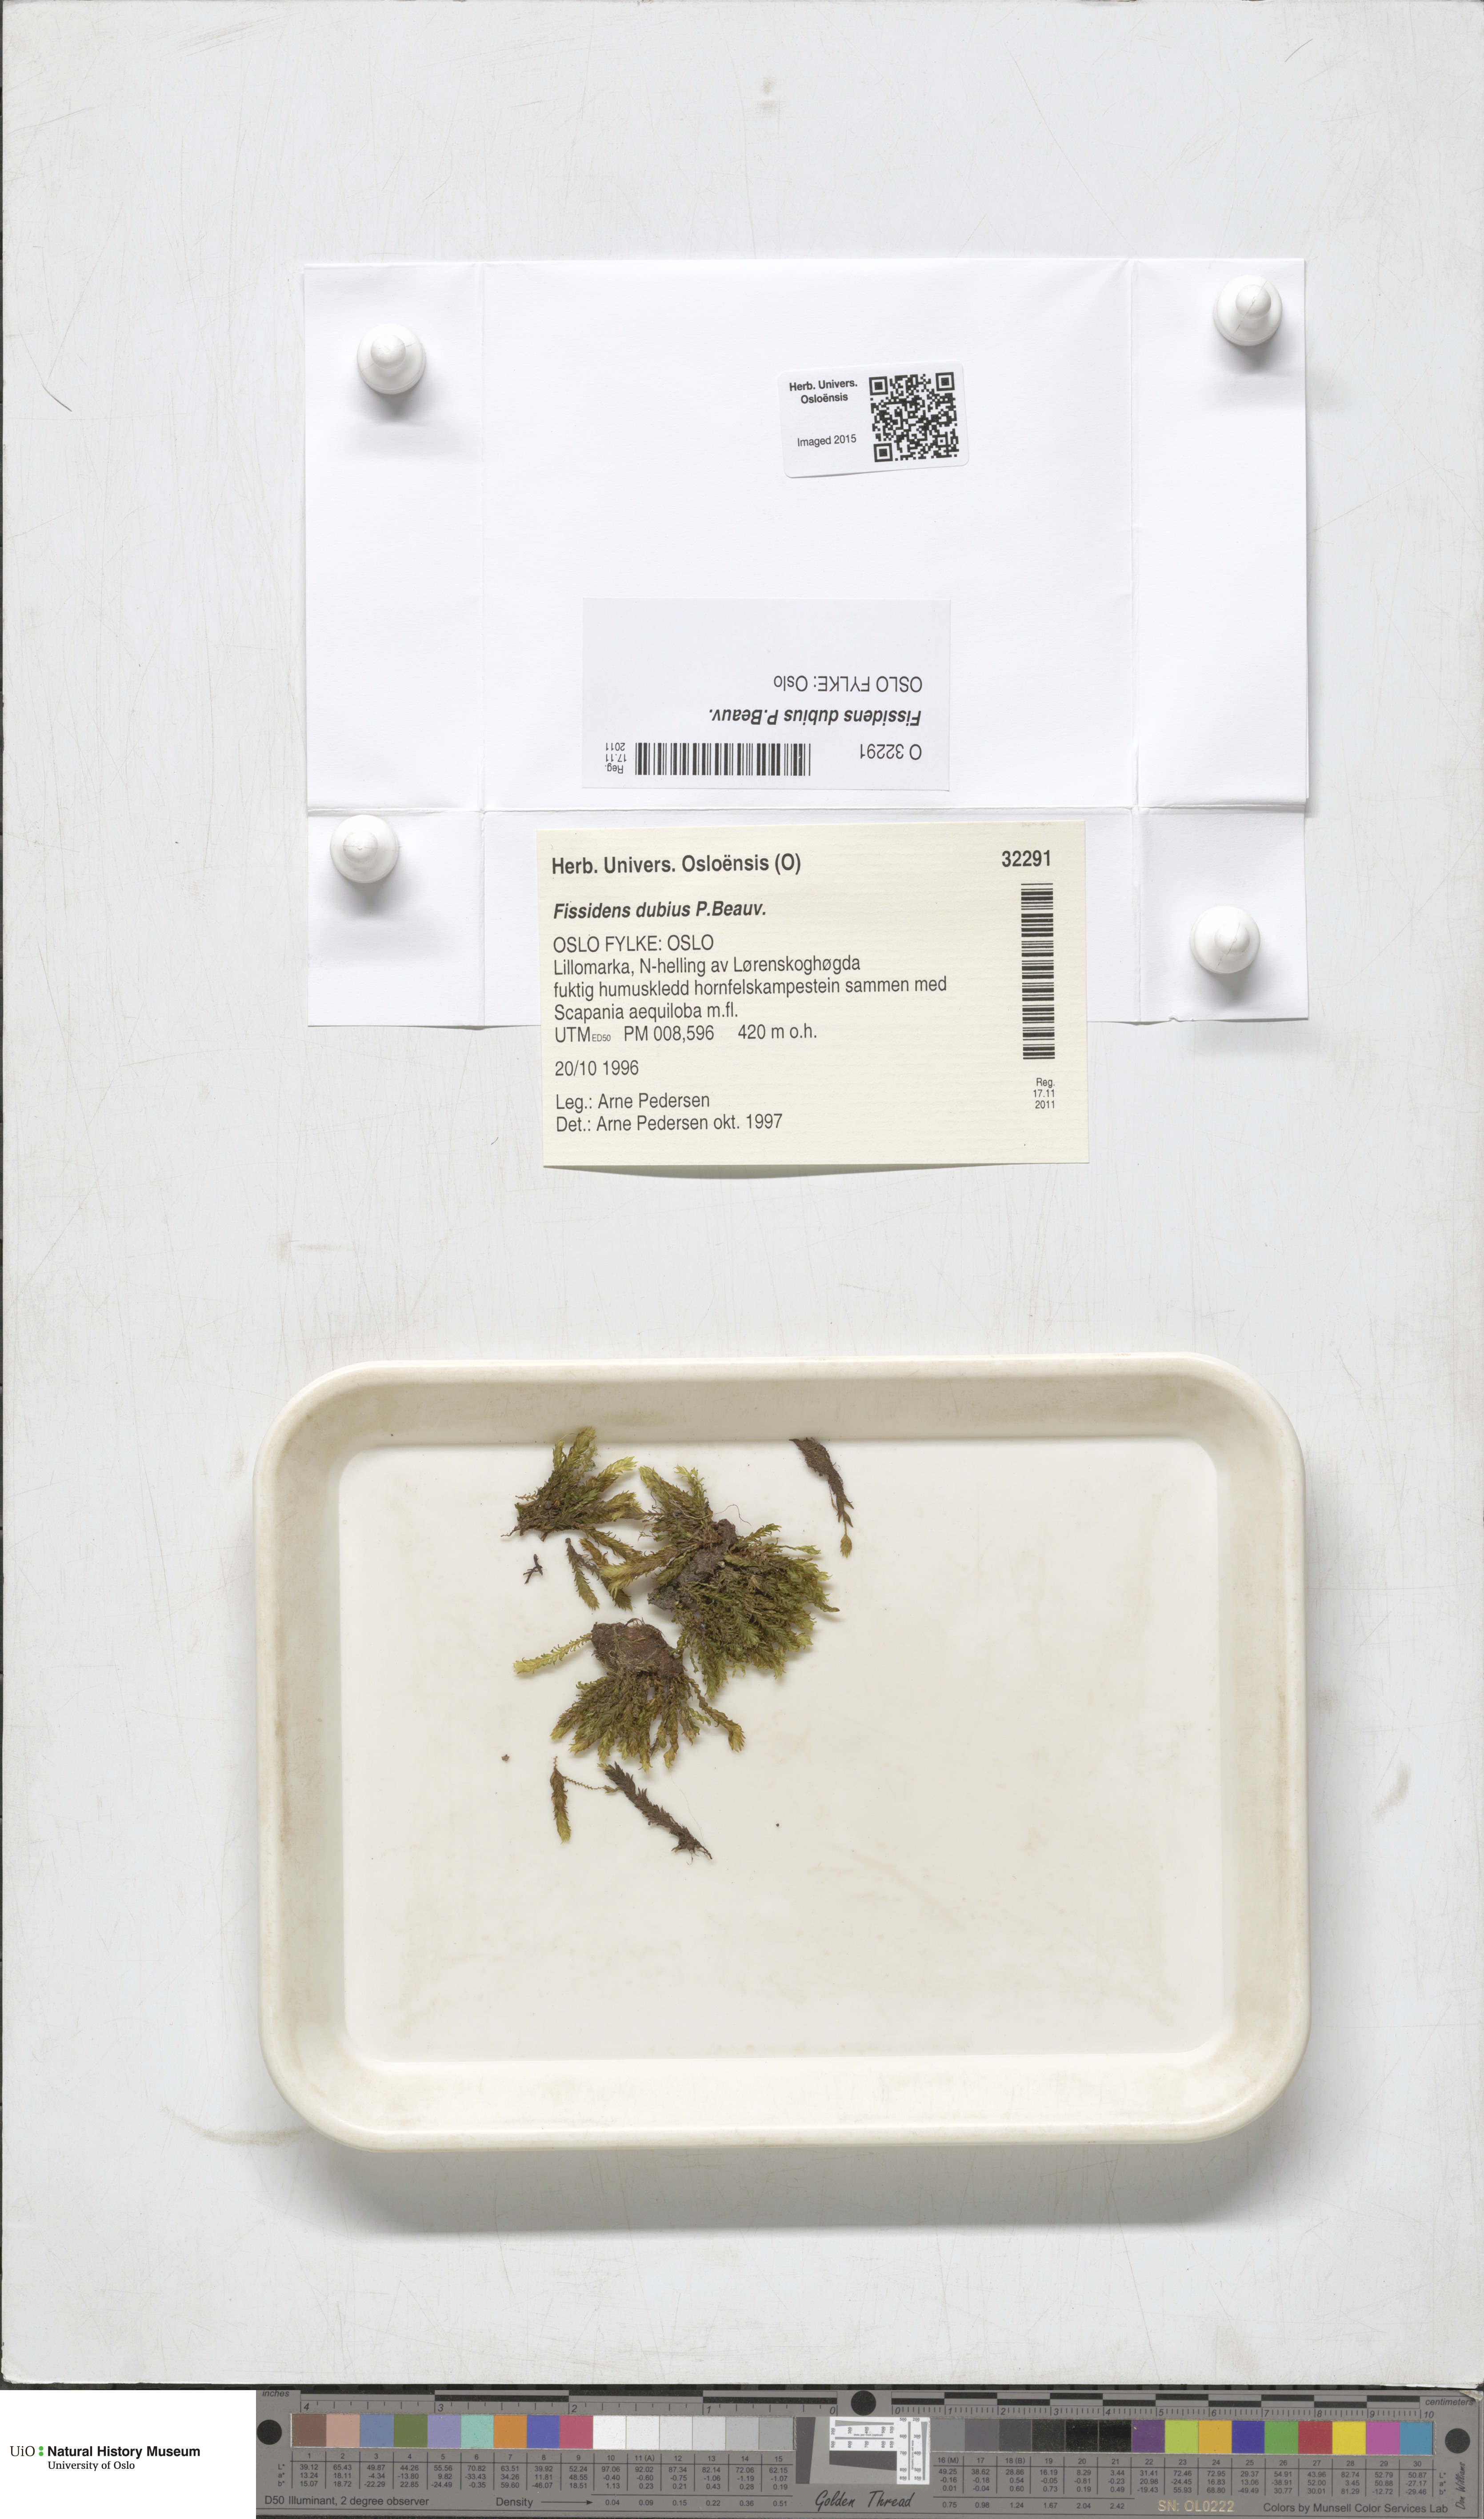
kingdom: Plantae
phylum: Bryophyta
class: Bryopsida
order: Dicranales
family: Fissidentaceae
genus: Fissidens
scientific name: Fissidens dubius
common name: Rock pocket moss
